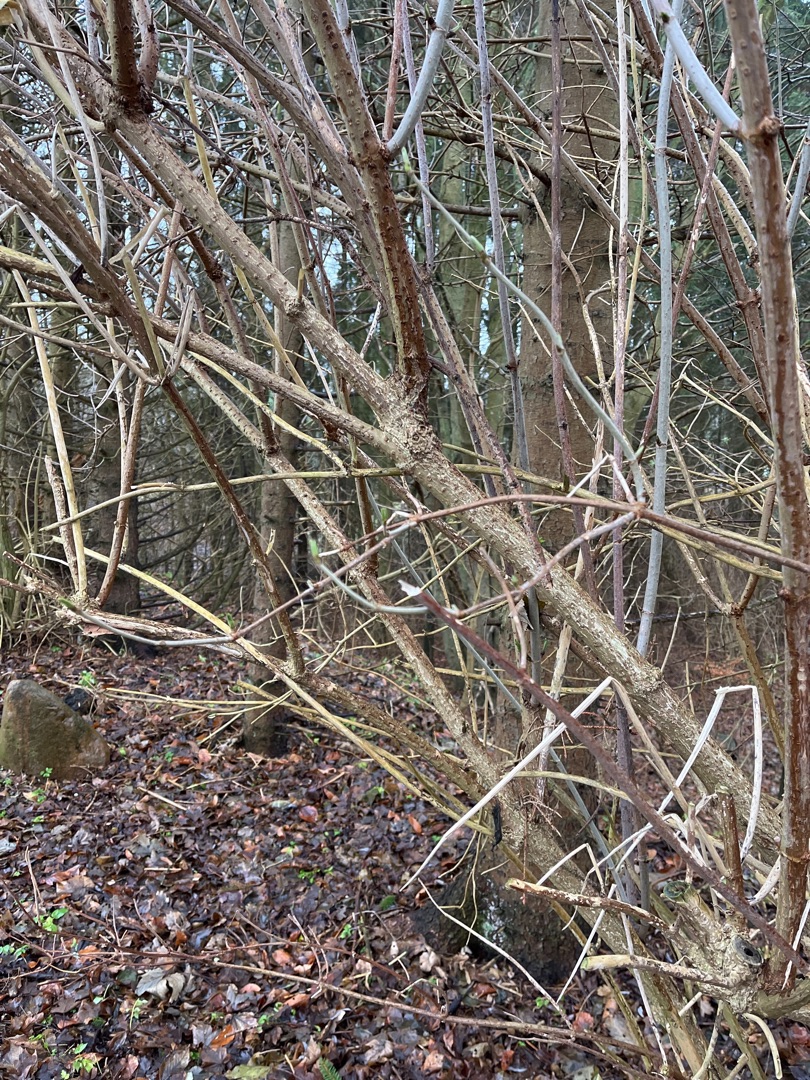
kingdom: Plantae
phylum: Tracheophyta
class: Magnoliopsida
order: Dipsacales
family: Viburnaceae
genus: Sambucus
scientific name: Sambucus nigra
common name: Almindelig hyld
